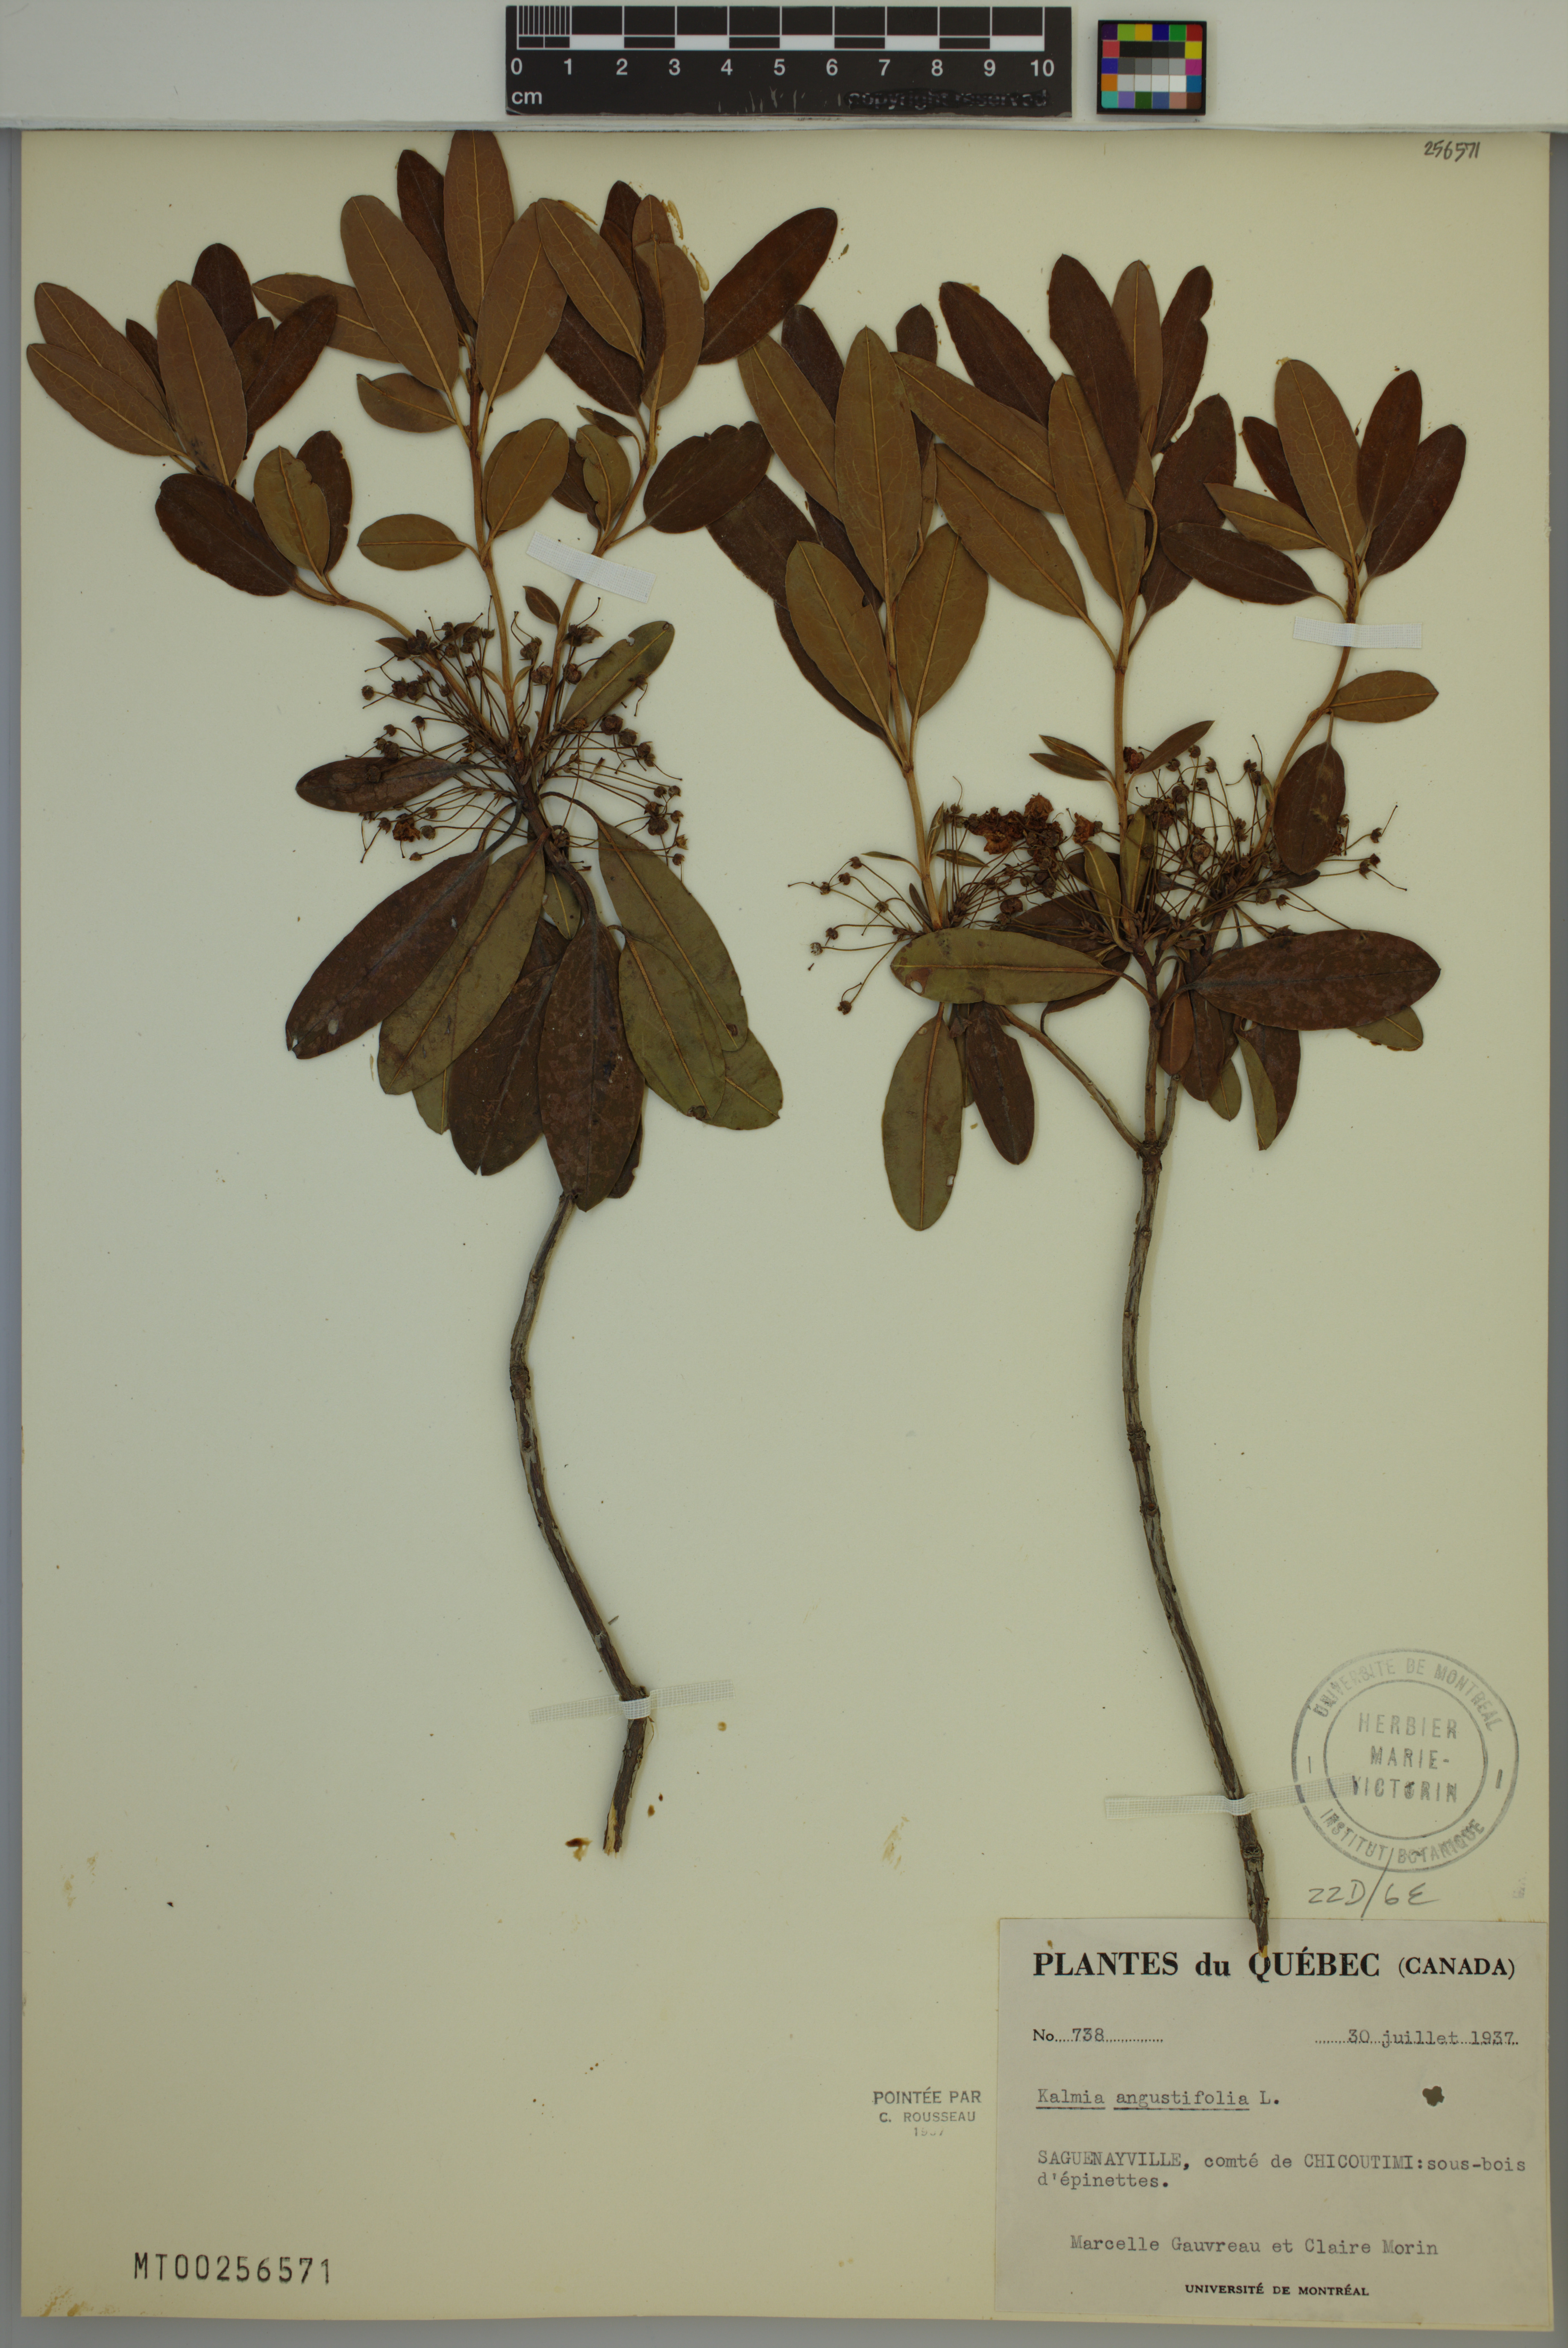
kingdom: Plantae
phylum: Tracheophyta
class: Magnoliopsida
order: Ericales
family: Ericaceae
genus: Kalmia
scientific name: Kalmia angustifolia
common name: Sheep-laurel
